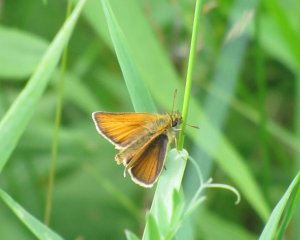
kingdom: Animalia
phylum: Arthropoda
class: Insecta
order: Lepidoptera
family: Hesperiidae
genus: Thymelicus
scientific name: Thymelicus lineola
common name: European Skipper
